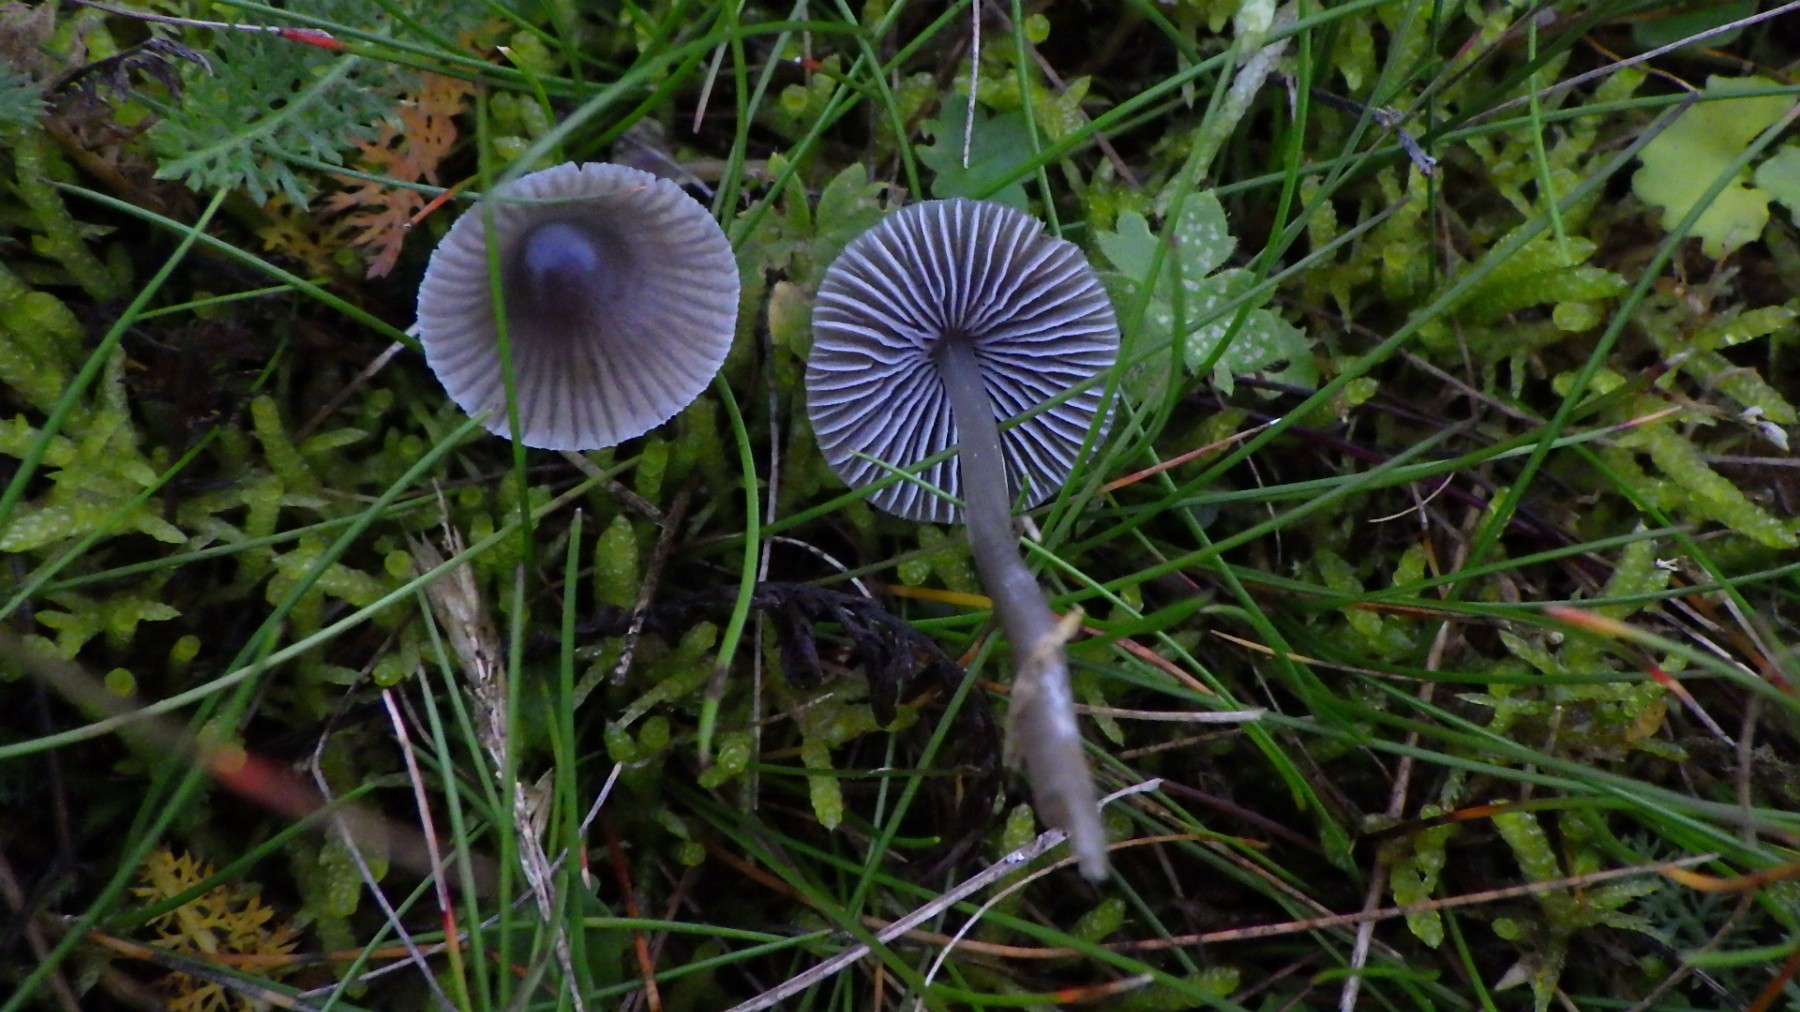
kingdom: Fungi
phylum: Basidiomycota
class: Agaricomycetes
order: Agaricales
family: Mycenaceae
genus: Mycena
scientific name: Mycena aetites
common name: plæne-huesvamp
